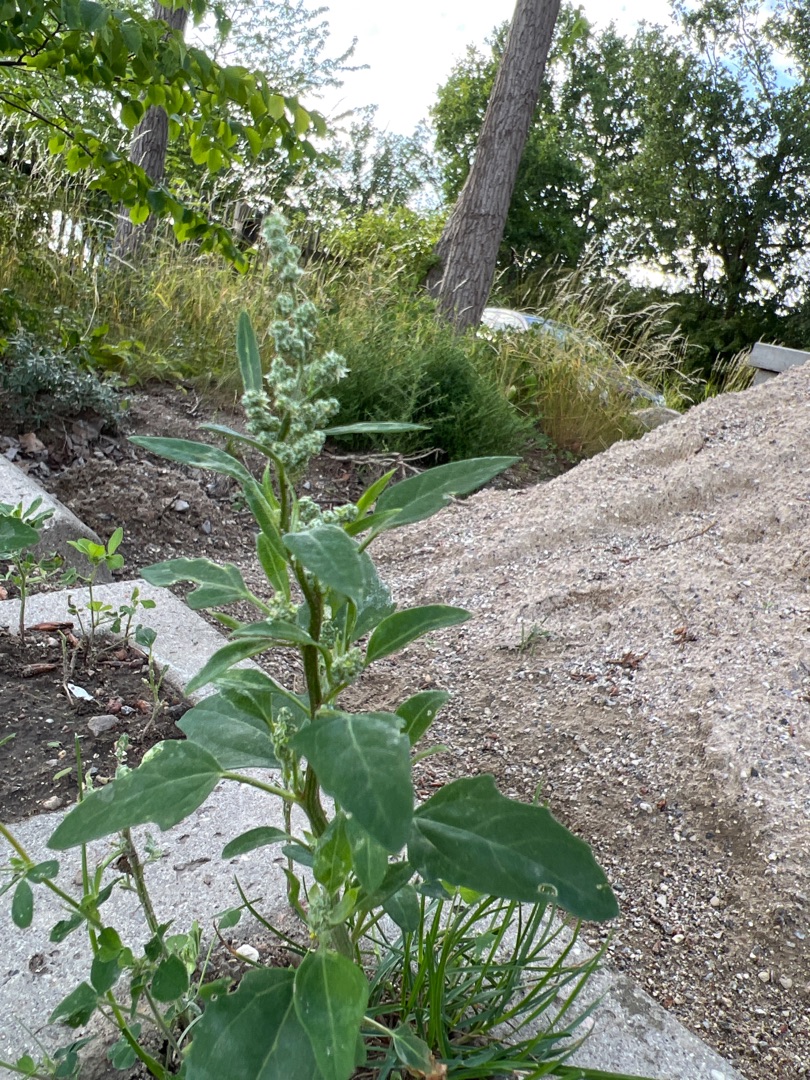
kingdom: Plantae
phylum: Tracheophyta
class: Magnoliopsida
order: Caryophyllales
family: Amaranthaceae
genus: Chenopodium
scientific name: Chenopodium album
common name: Hvidmelet gåsefod
